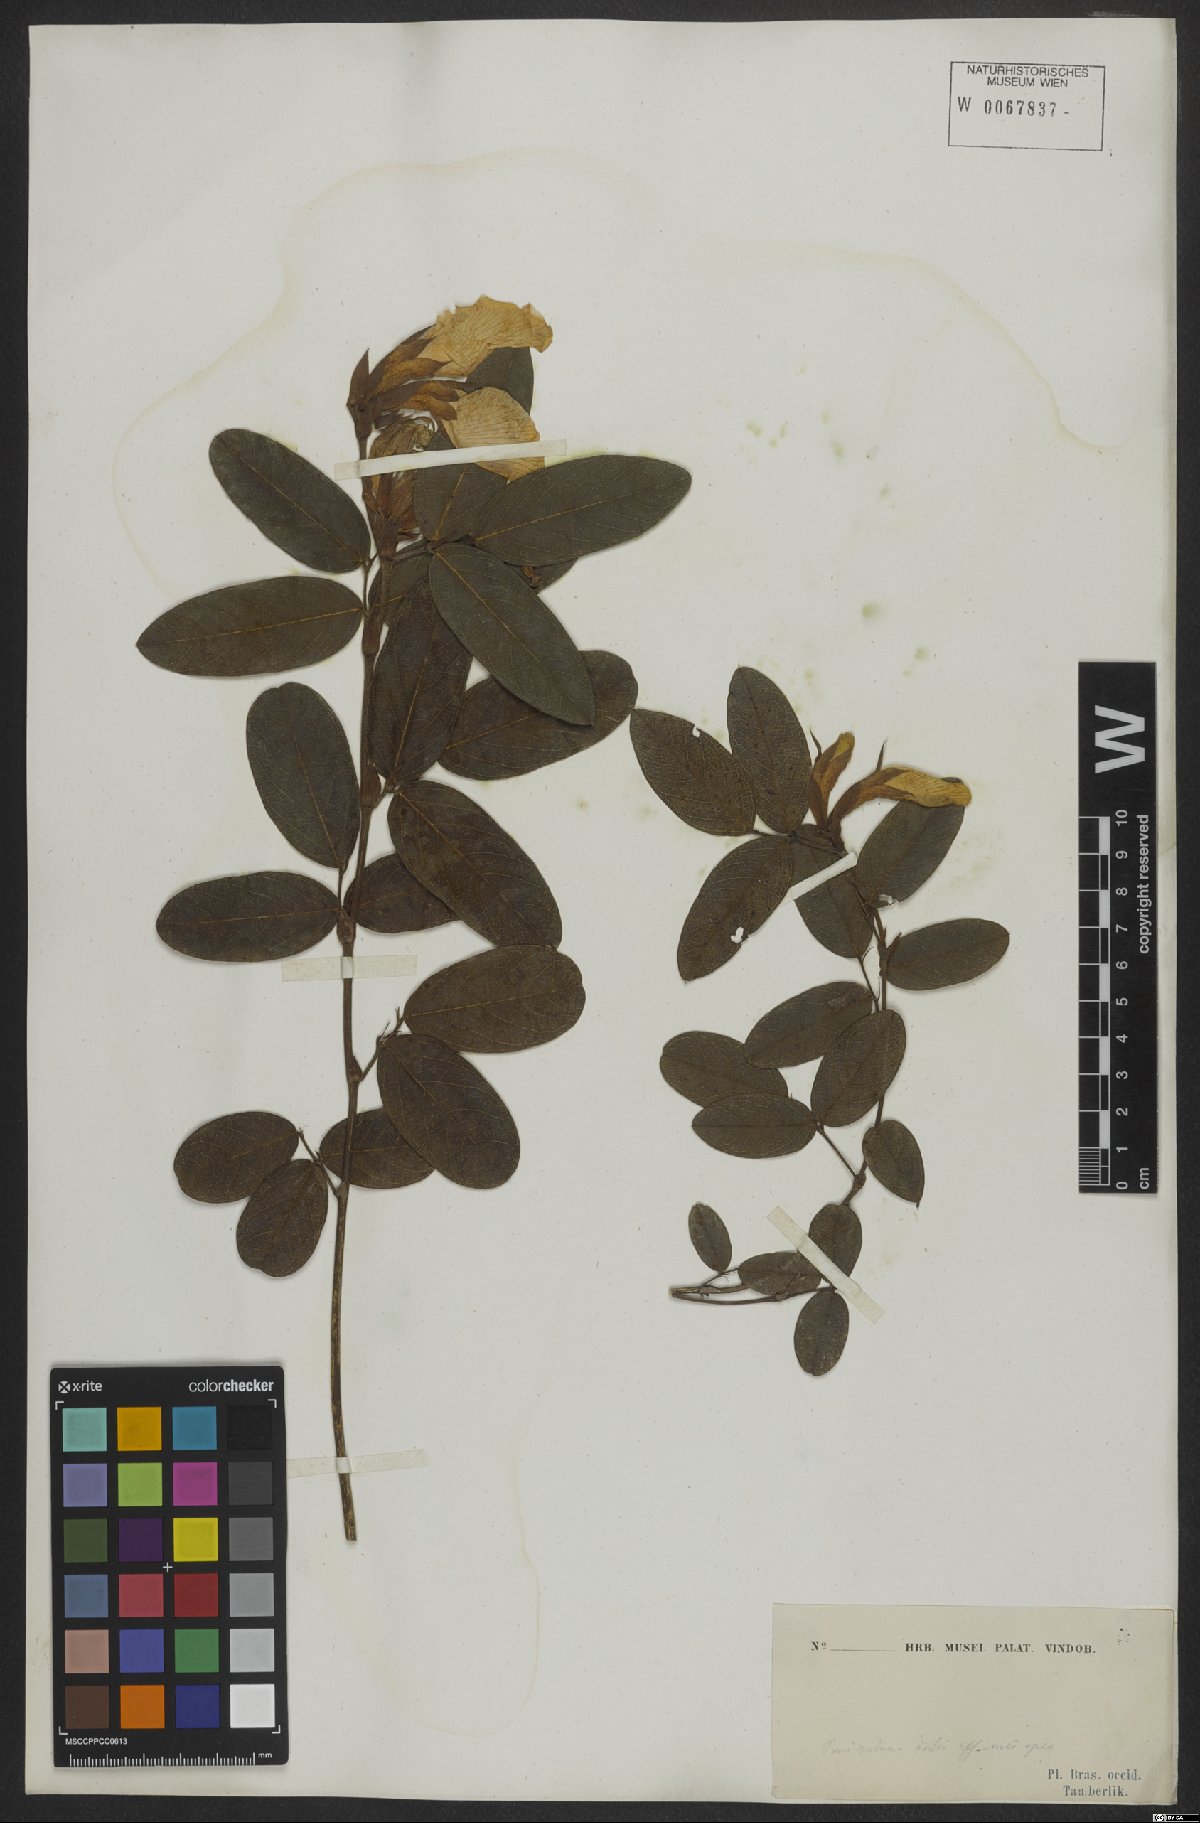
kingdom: Plantae
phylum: Tracheophyta
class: Magnoliopsida
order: Fabales
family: Fabaceae
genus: Periandra
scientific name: Periandra
